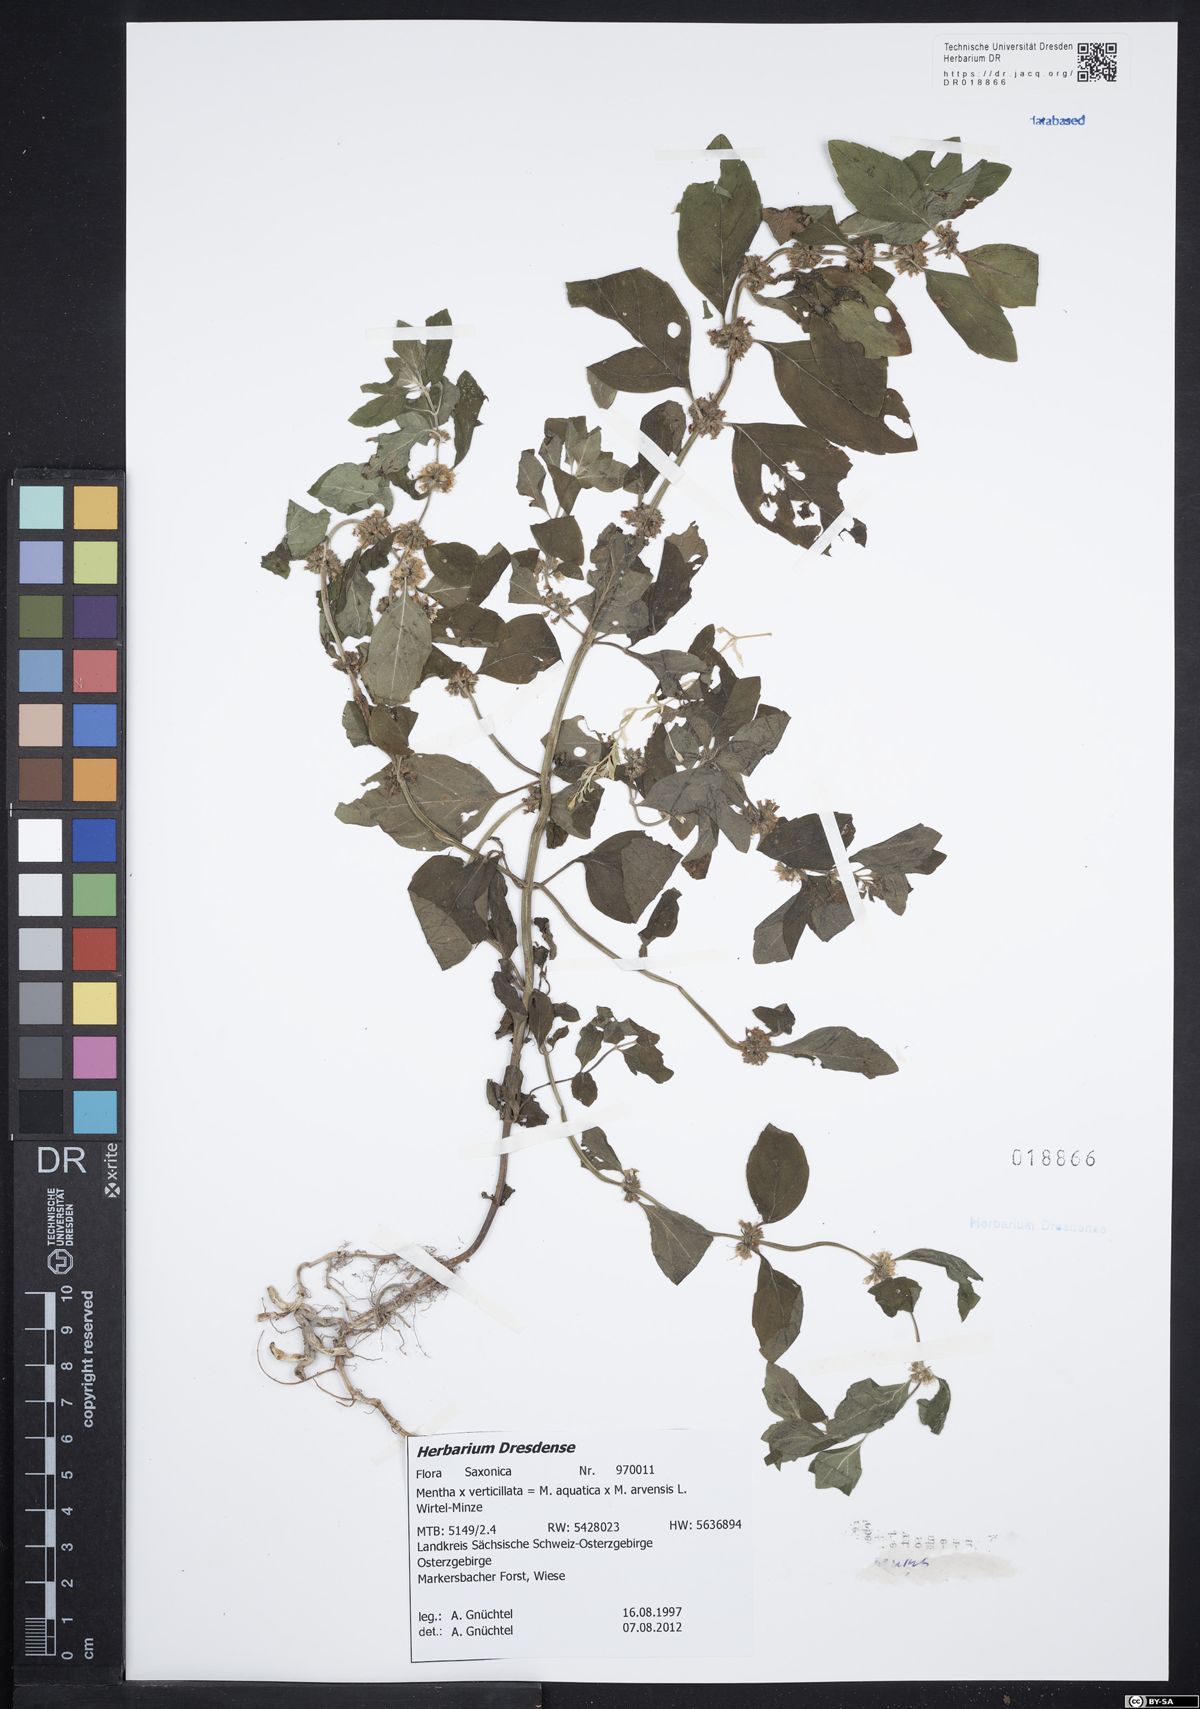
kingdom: Plantae
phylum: Tracheophyta
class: Magnoliopsida
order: Lamiales
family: Lamiaceae
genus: Mentha
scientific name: Mentha verticillata
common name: Mint
